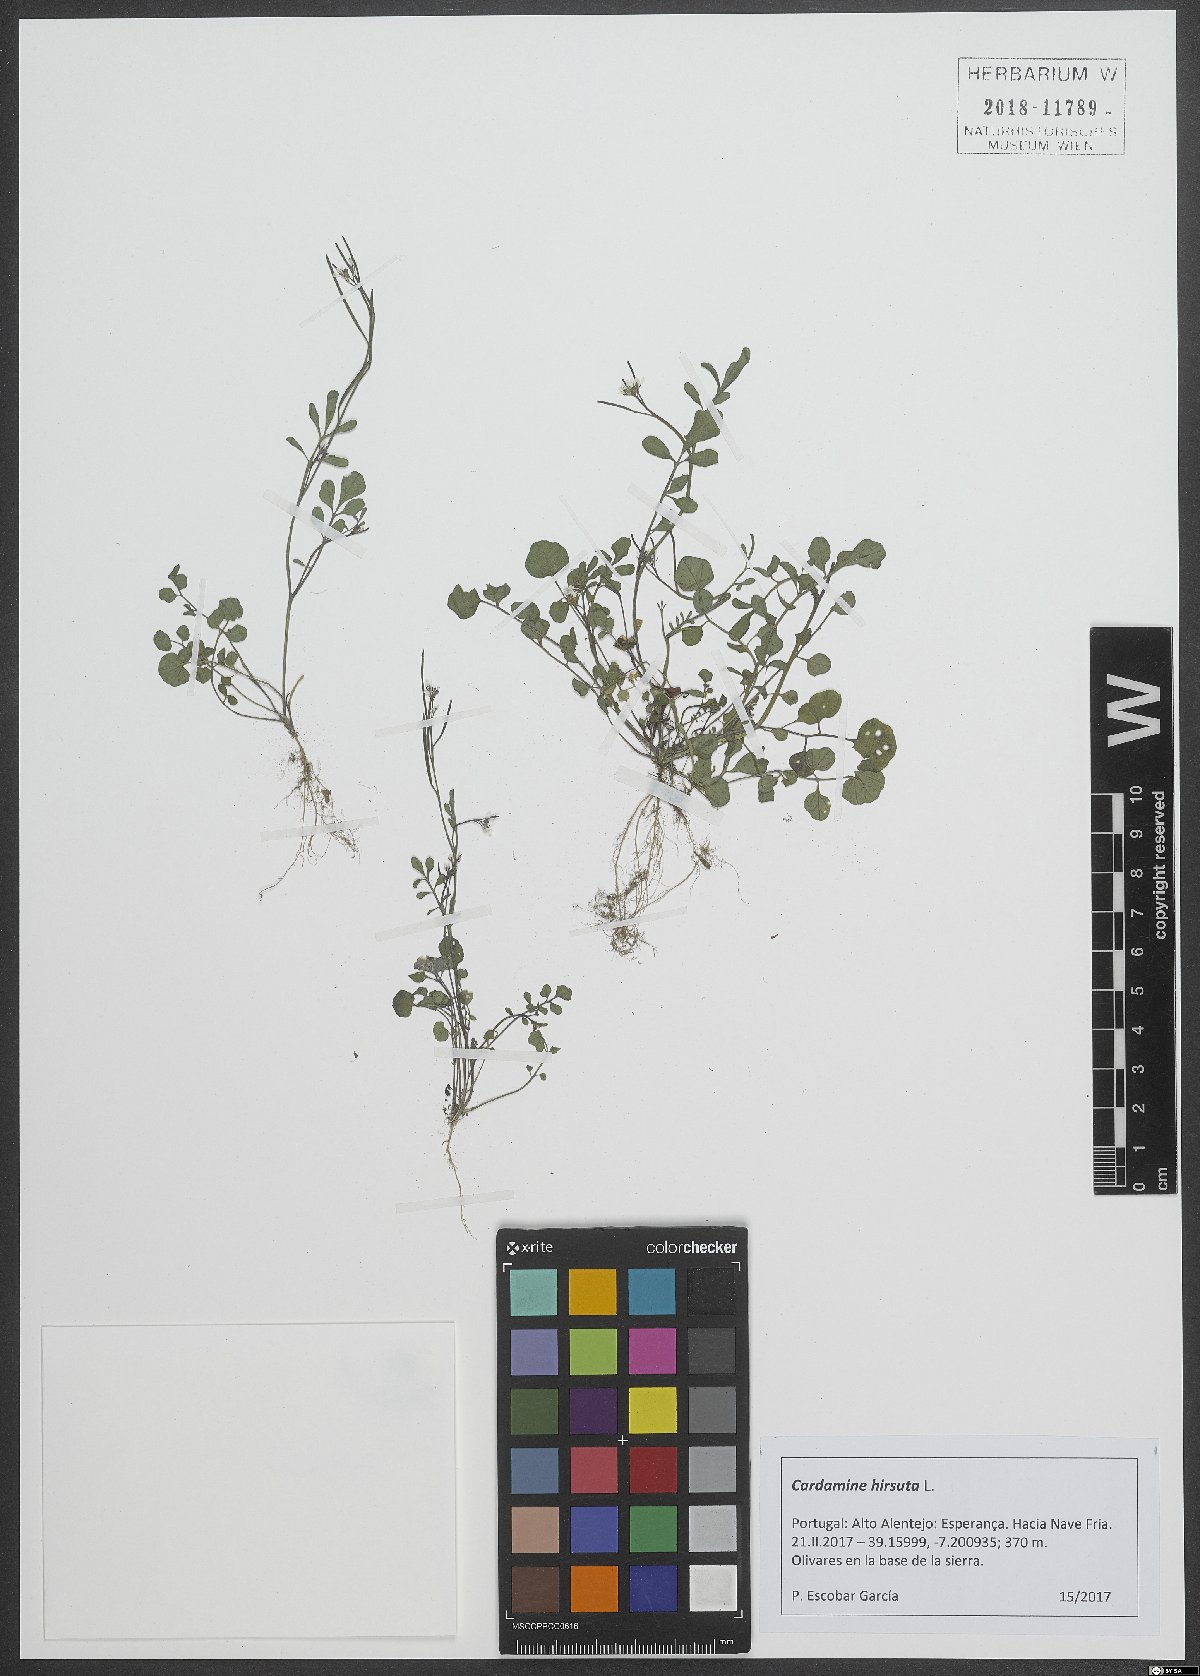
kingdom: Plantae
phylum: Tracheophyta
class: Magnoliopsida
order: Brassicales
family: Brassicaceae
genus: Cardamine
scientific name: Cardamine hirsuta
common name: Hairy bittercress
